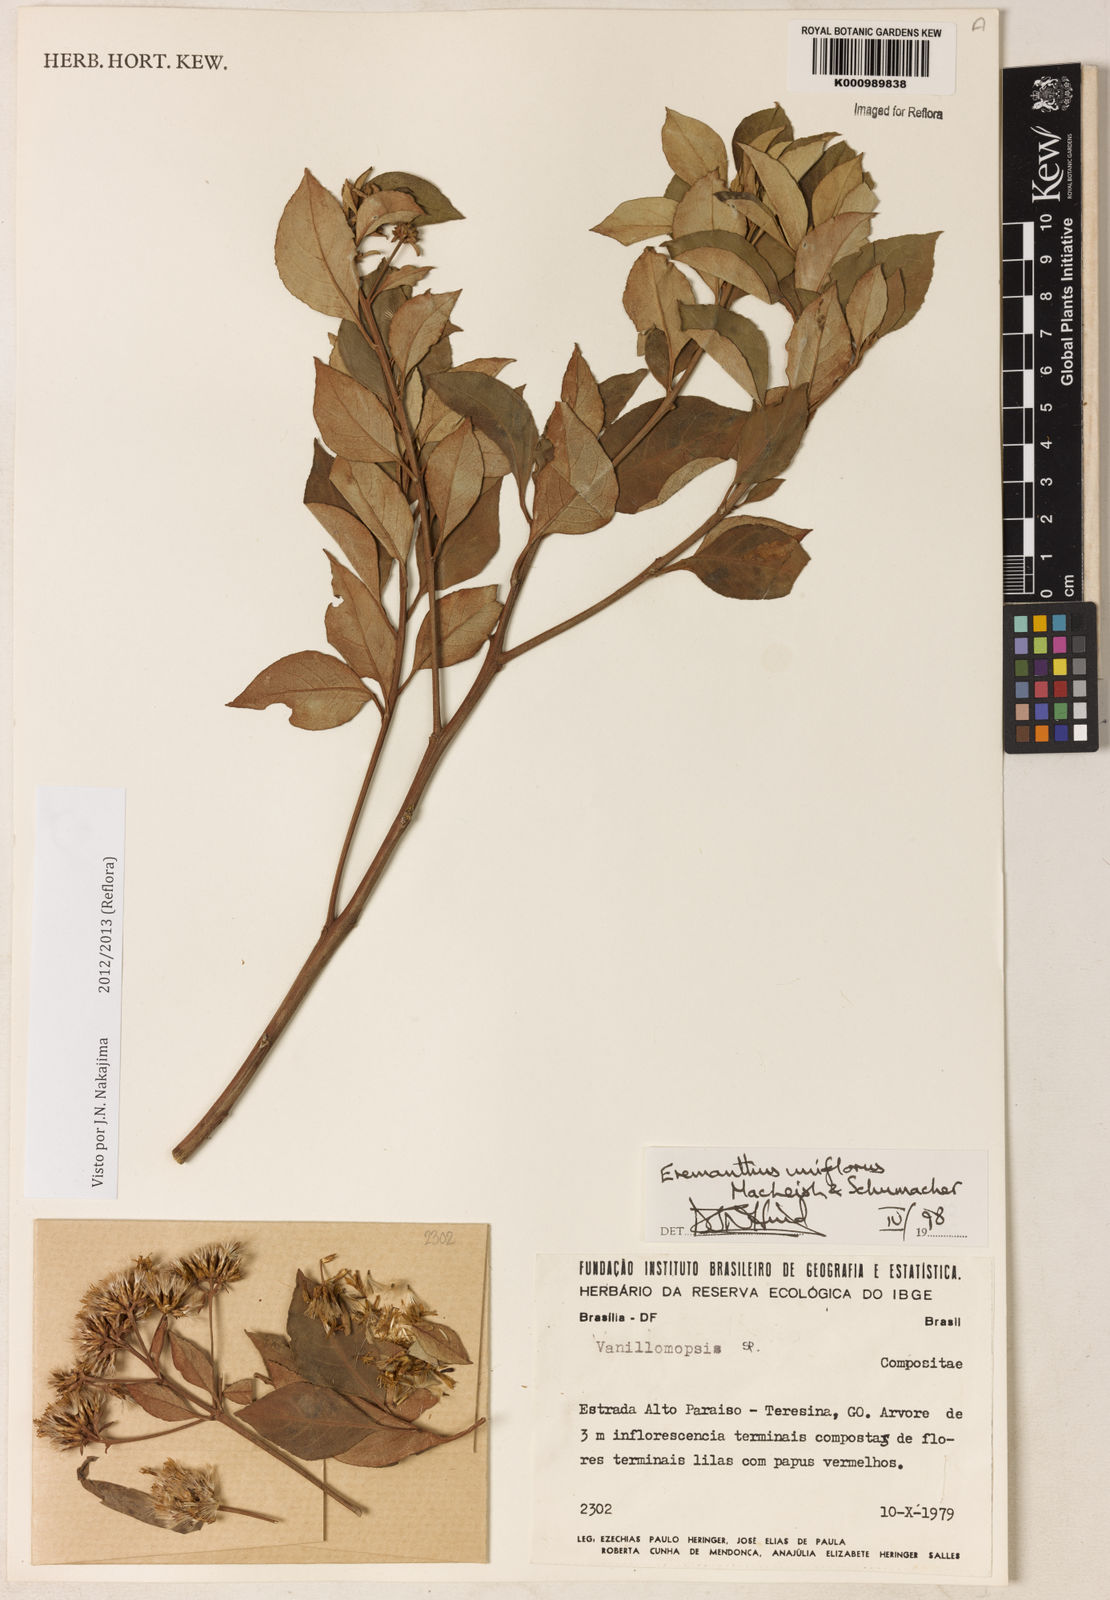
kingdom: Plantae
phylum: Tracheophyta
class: Magnoliopsida
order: Asterales
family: Asteraceae
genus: Eremanthus
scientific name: Eremanthus uniflorus
